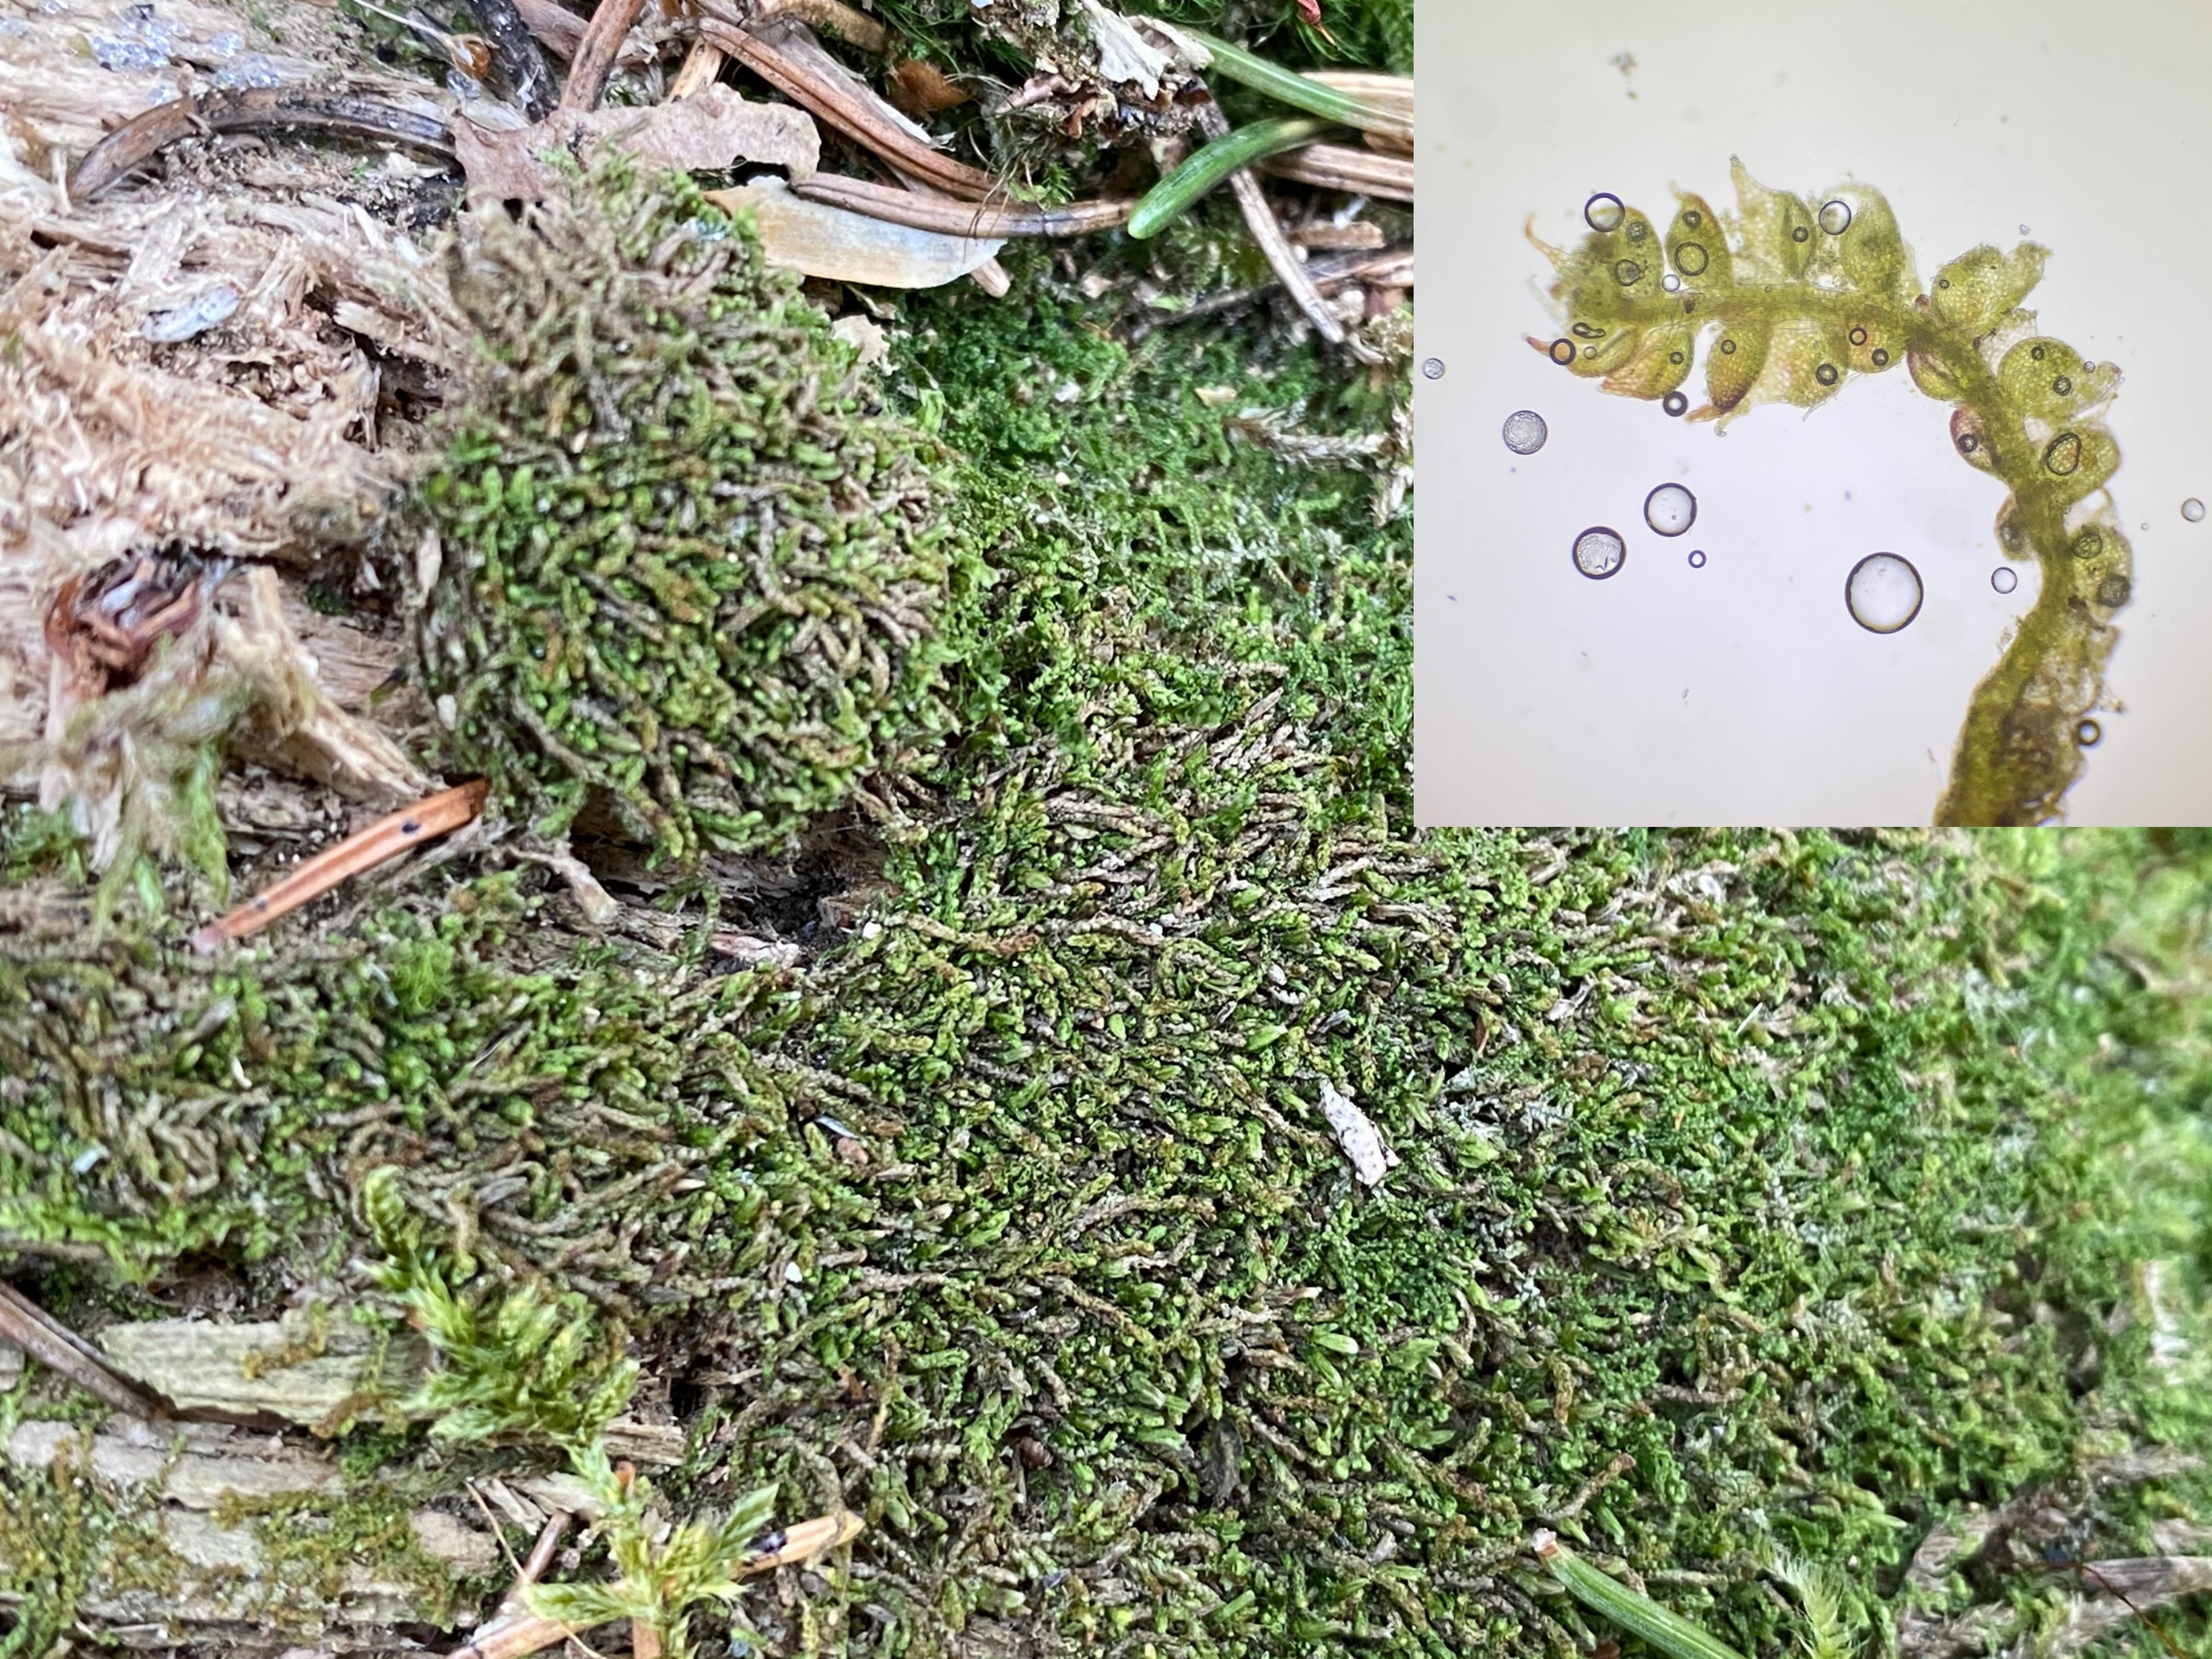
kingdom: Plantae
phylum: Marchantiophyta
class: Jungermanniopsida
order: Jungermanniales
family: Cephaloziaceae
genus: Nowellia
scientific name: Nowellia curvifolia
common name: Krumbladet stødmos
